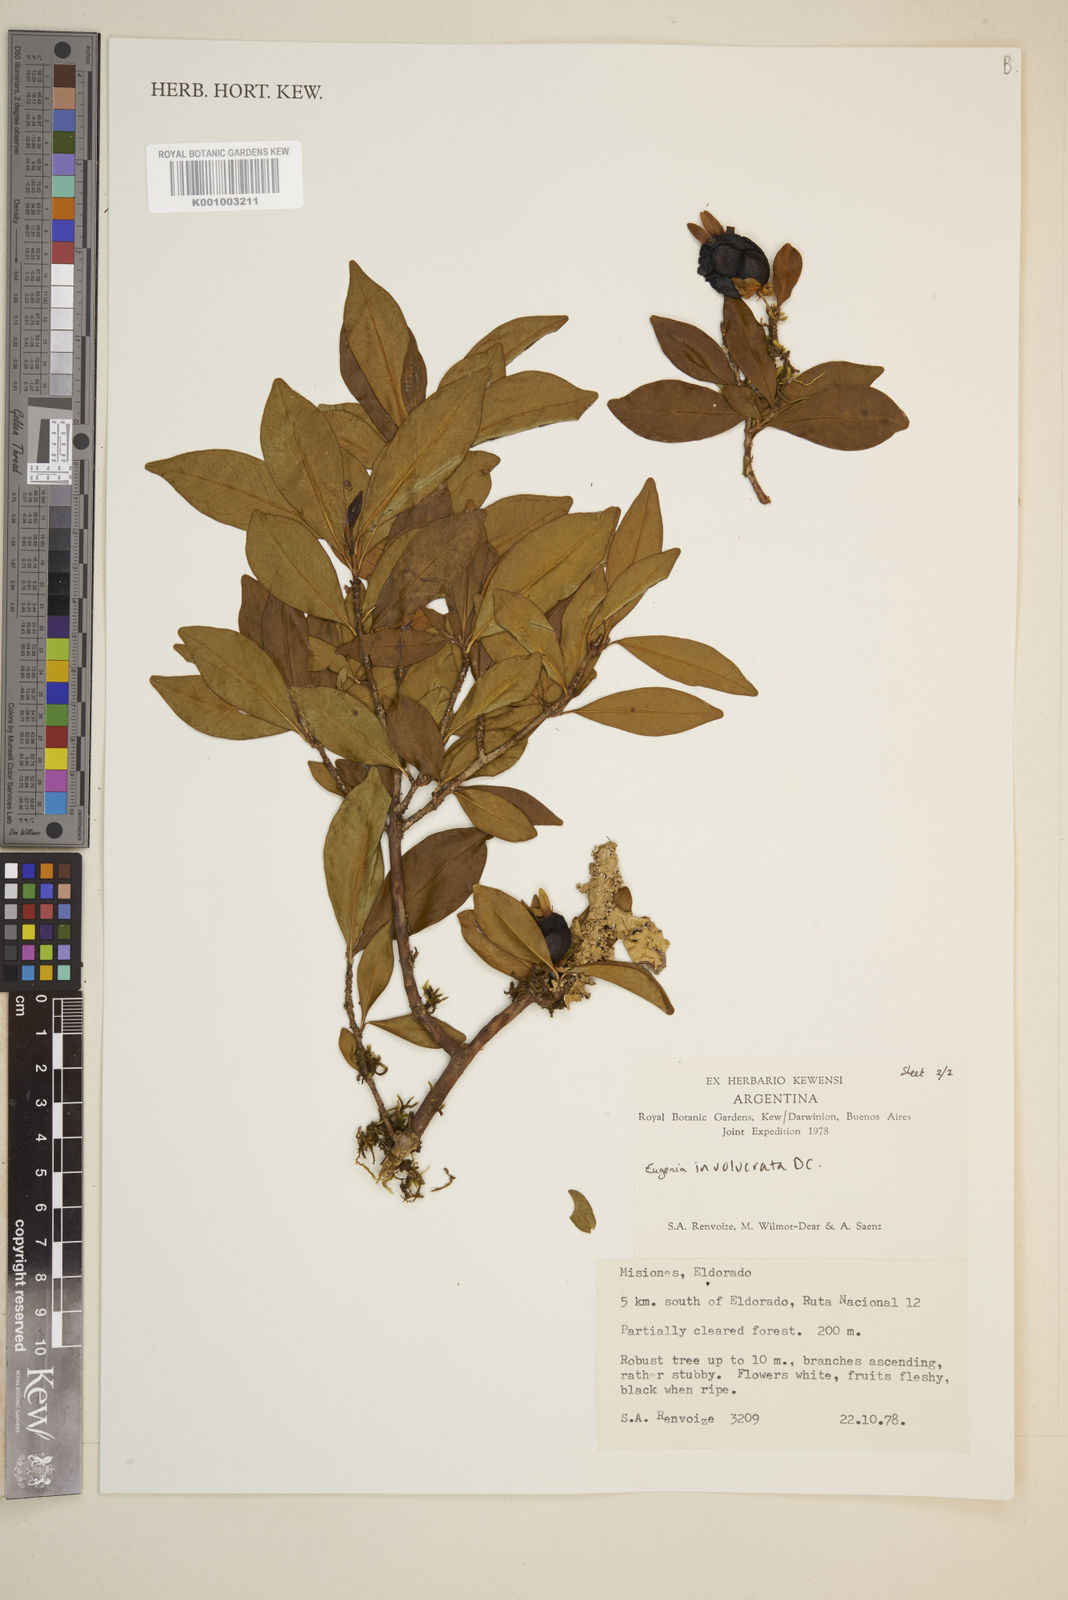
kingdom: Plantae
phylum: Tracheophyta
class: Magnoliopsida
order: Myrtales
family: Myrtaceae
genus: Eugenia
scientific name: Eugenia involucrata
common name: Cherry-of-the-rio grande
